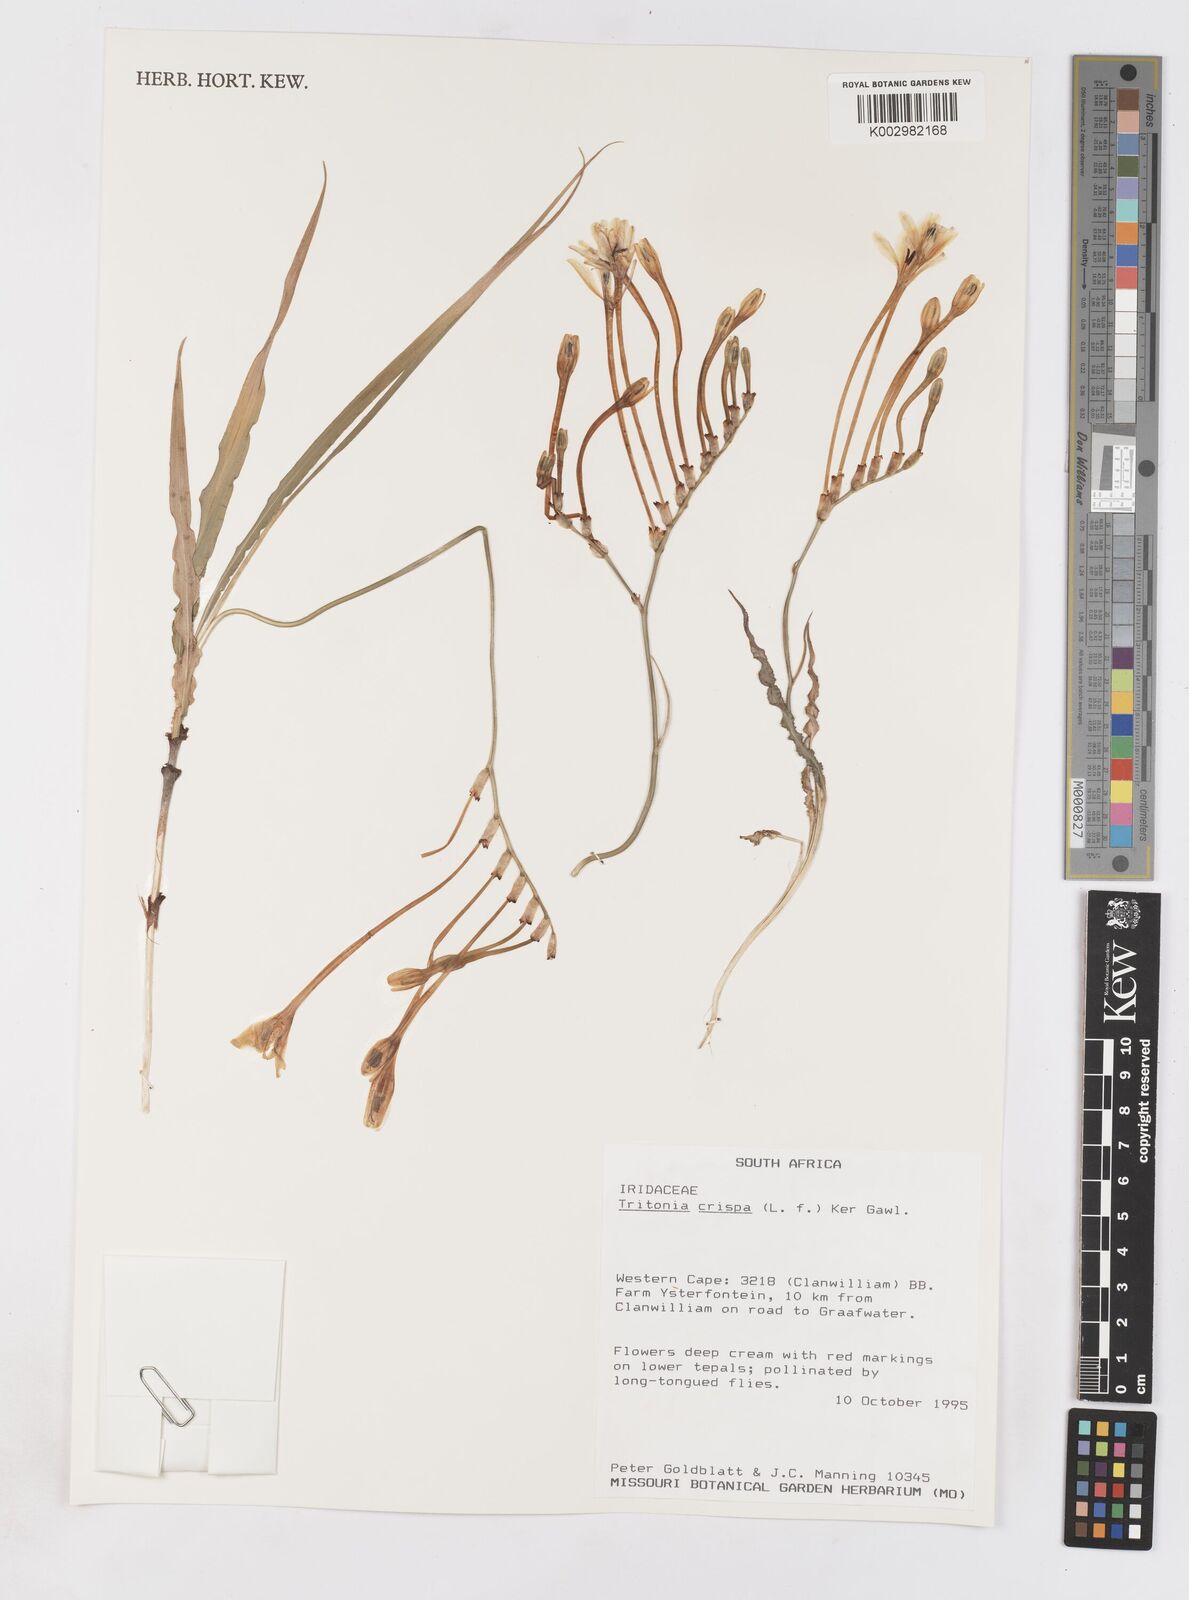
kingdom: Plantae
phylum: Tracheophyta
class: Liliopsida
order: Asparagales
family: Iridaceae
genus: Tritonia
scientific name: Tritonia undulata
